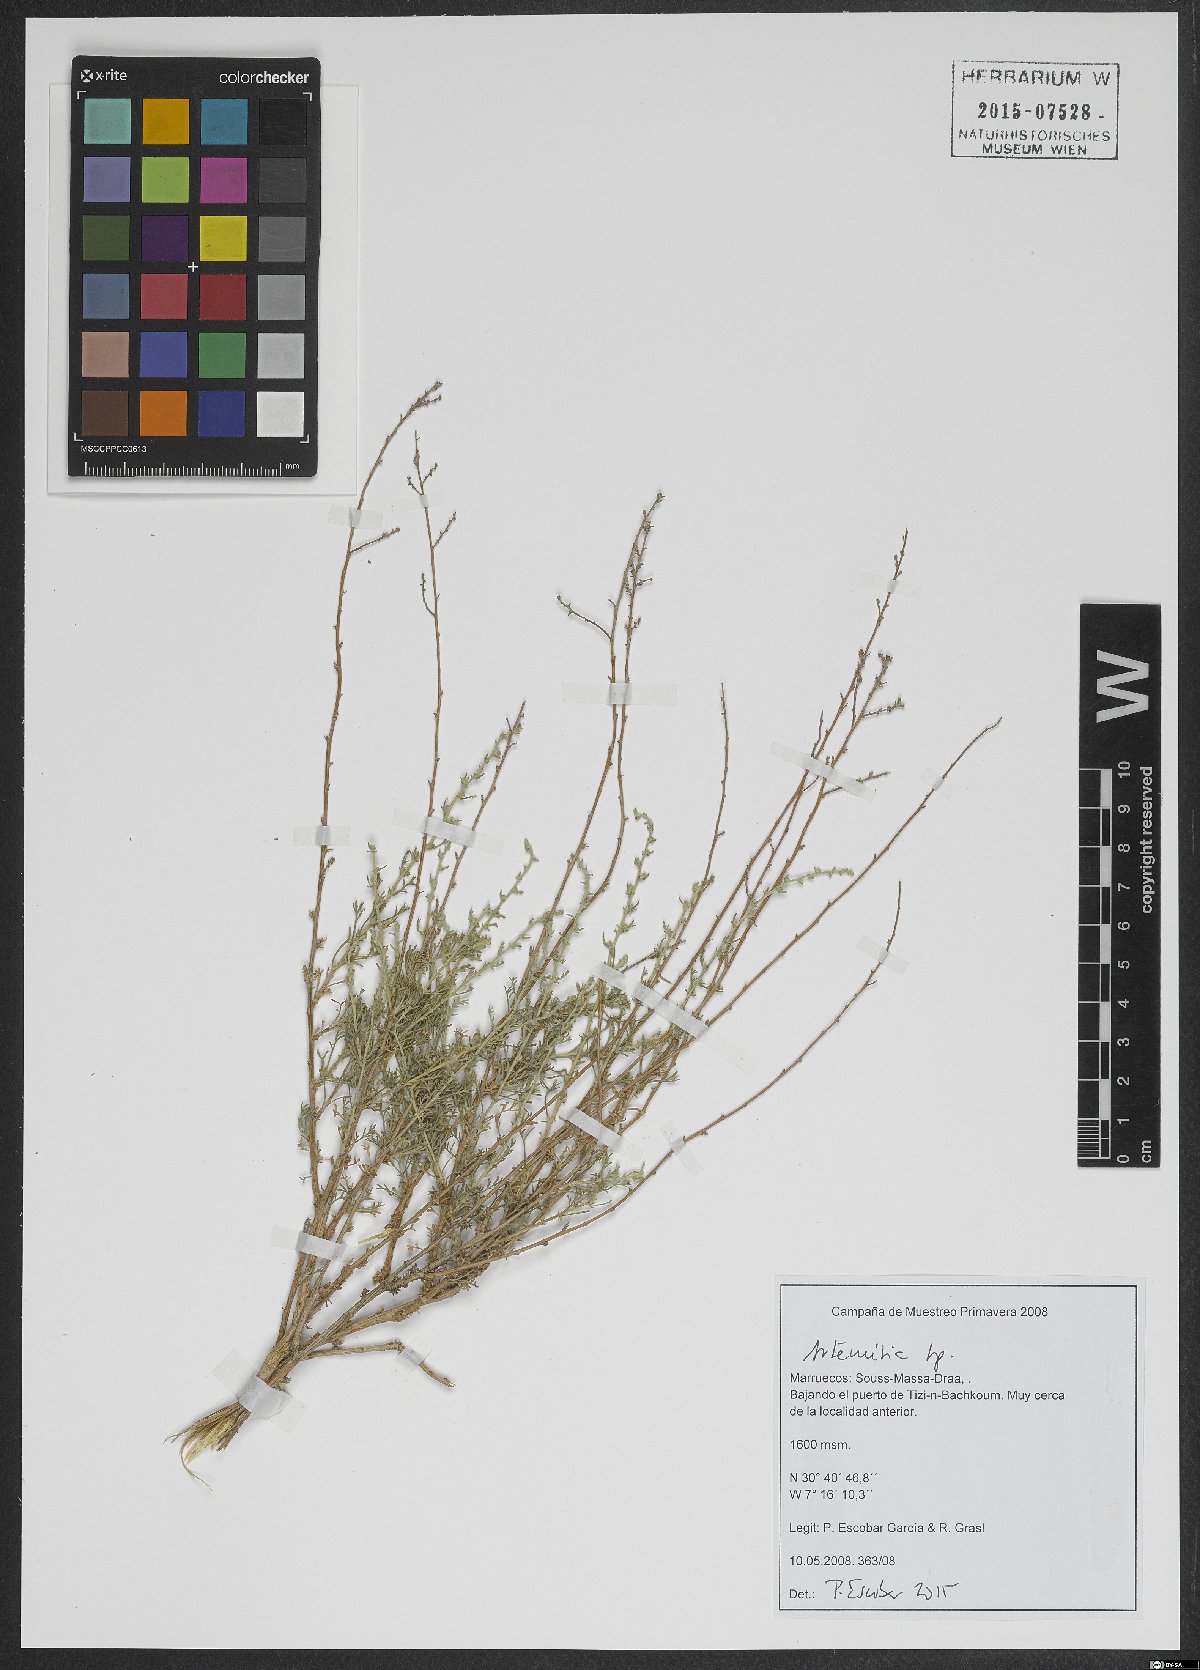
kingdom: Plantae
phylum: Tracheophyta
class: Magnoliopsida
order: Asterales
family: Asteraceae
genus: Artemisia
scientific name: Artemisia
